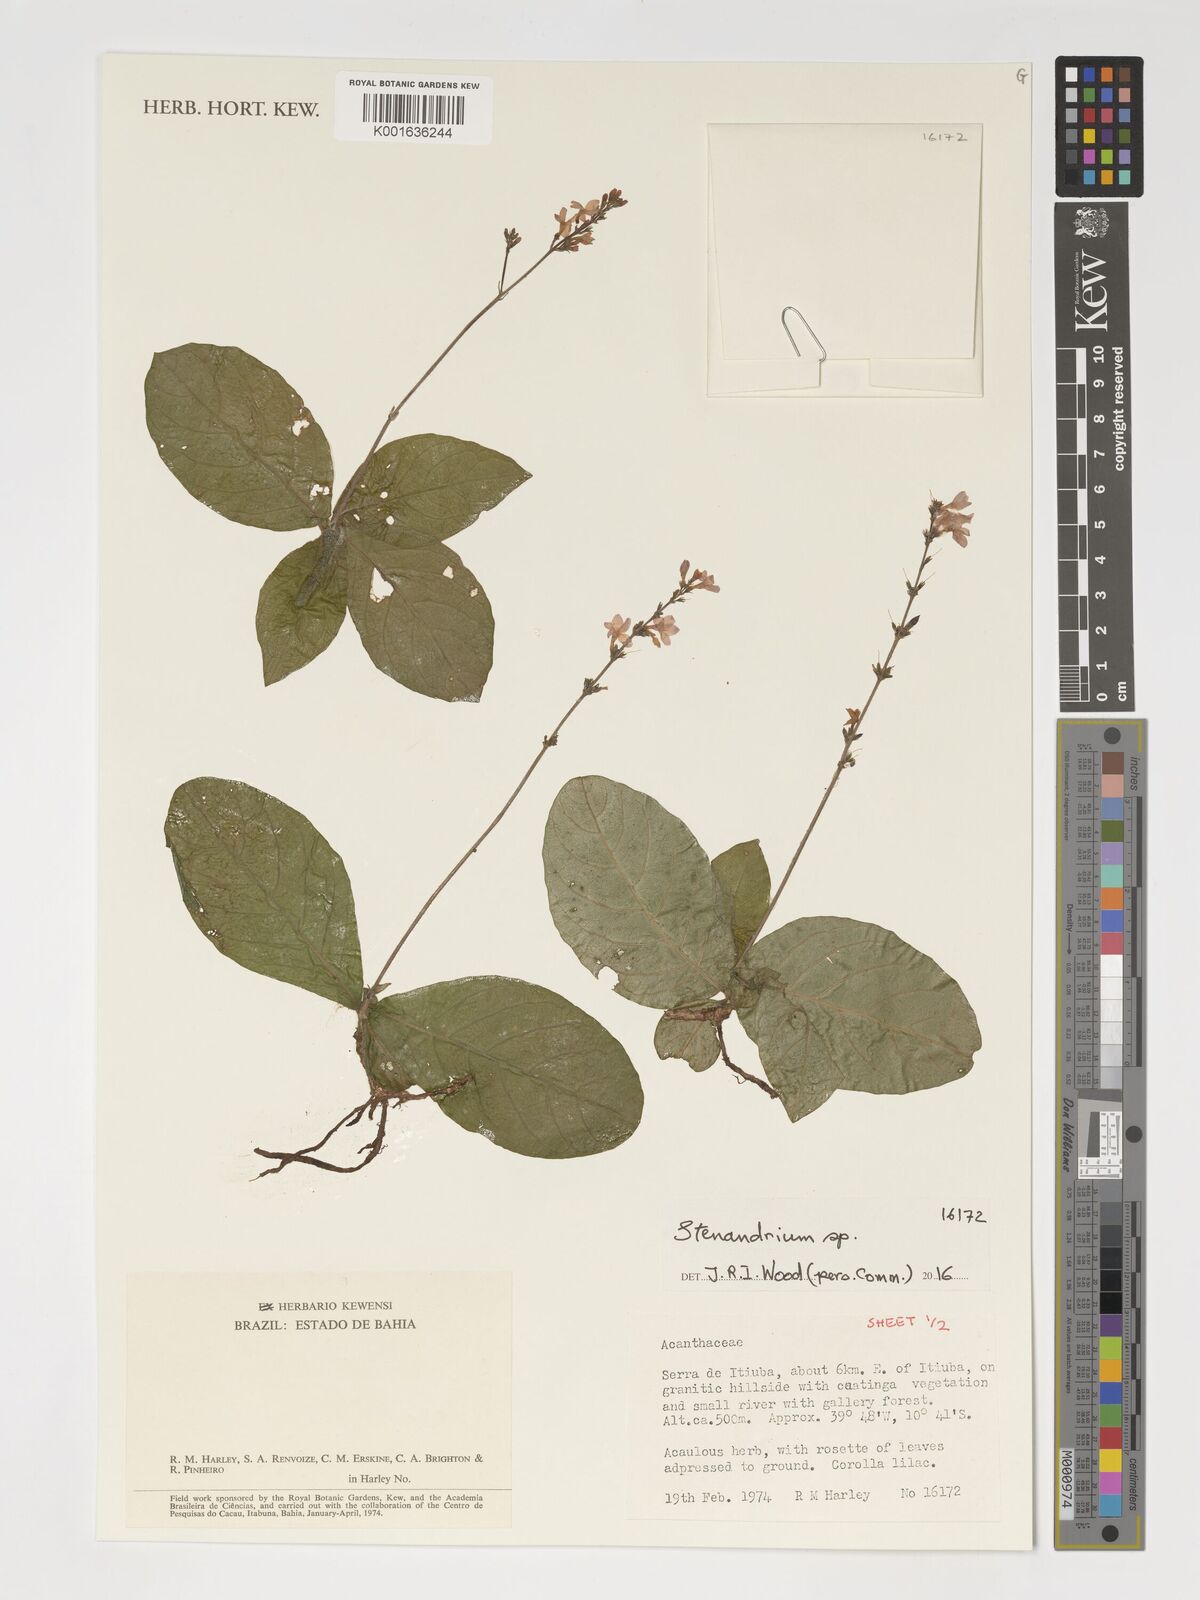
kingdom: Plantae
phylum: Tracheophyta
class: Magnoliopsida
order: Lamiales
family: Acanthaceae
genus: Stenandrium
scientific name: Stenandrium
